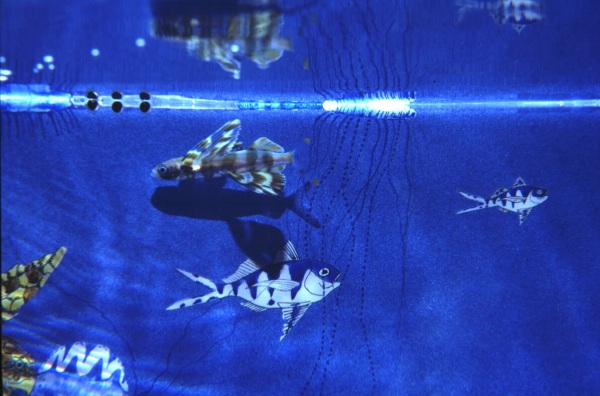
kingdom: Animalia
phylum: Chordata
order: Beloniformes
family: Exocoetidae
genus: Cypselurus
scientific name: Cypselurus poecilopterus
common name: Yellow-wing flyingfish
